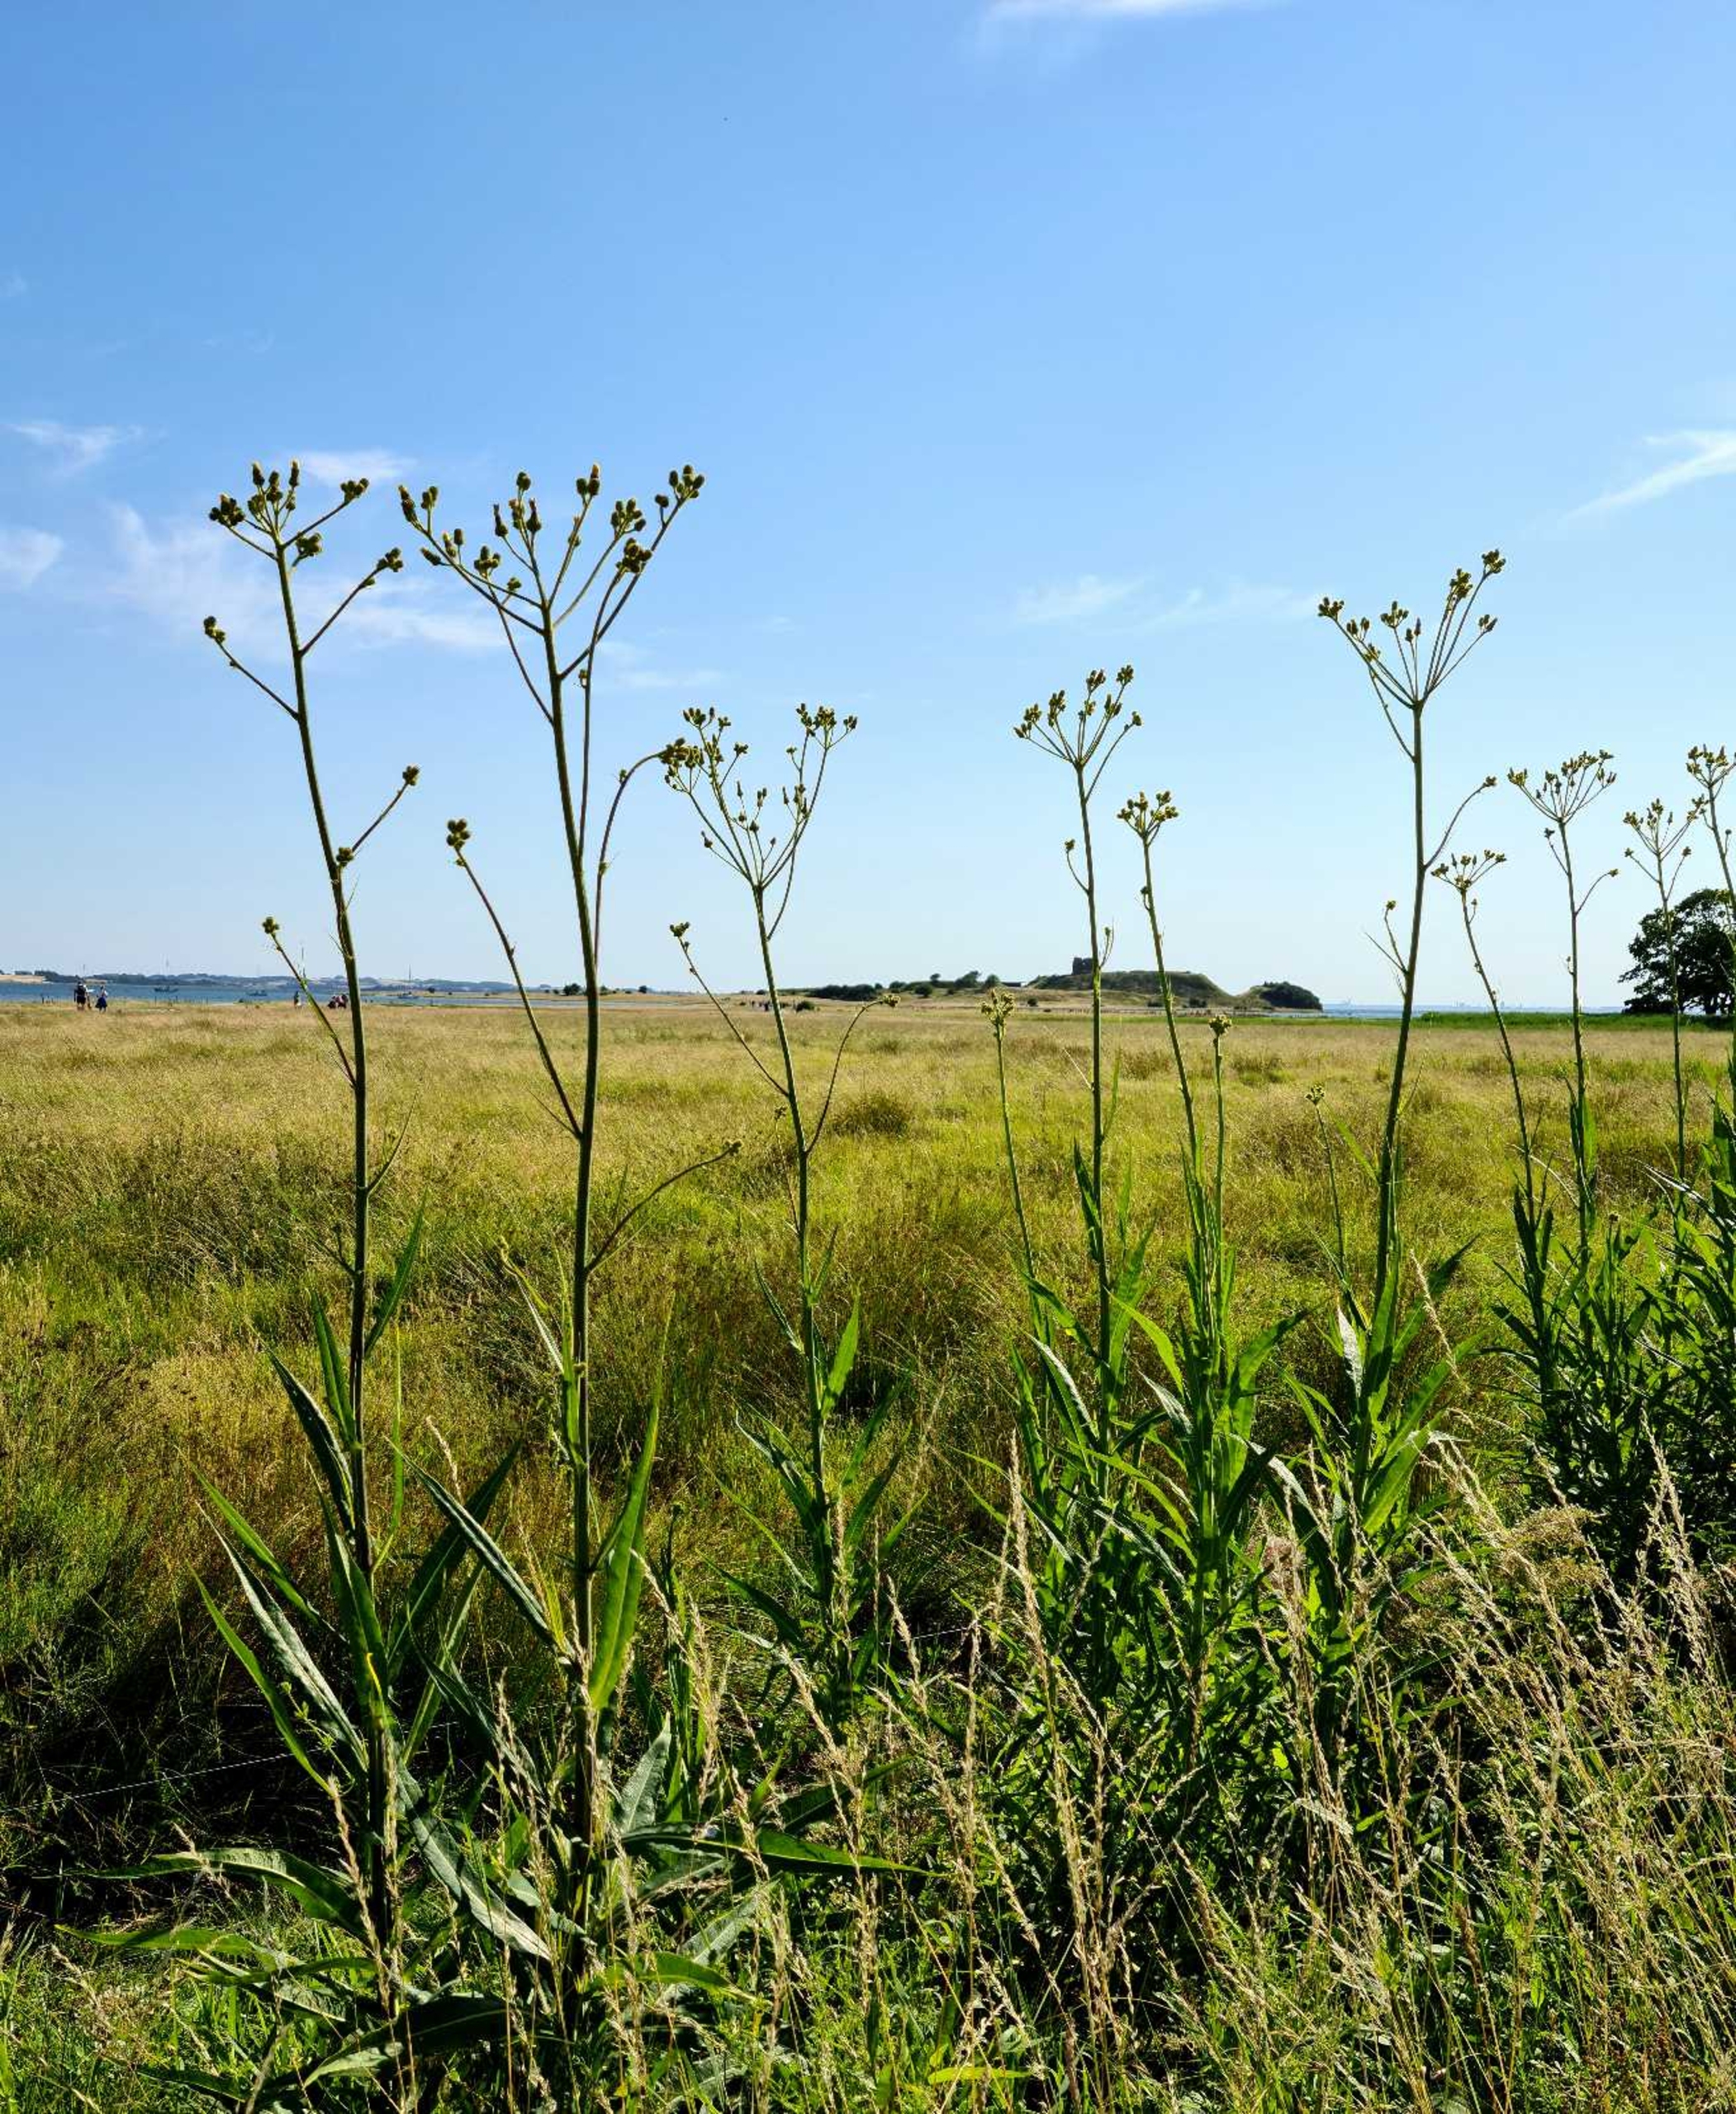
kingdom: Plantae
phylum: Tracheophyta
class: Magnoliopsida
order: Asterales
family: Asteraceae
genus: Sonchus
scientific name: Sonchus palustris
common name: Kær-svinemælk
